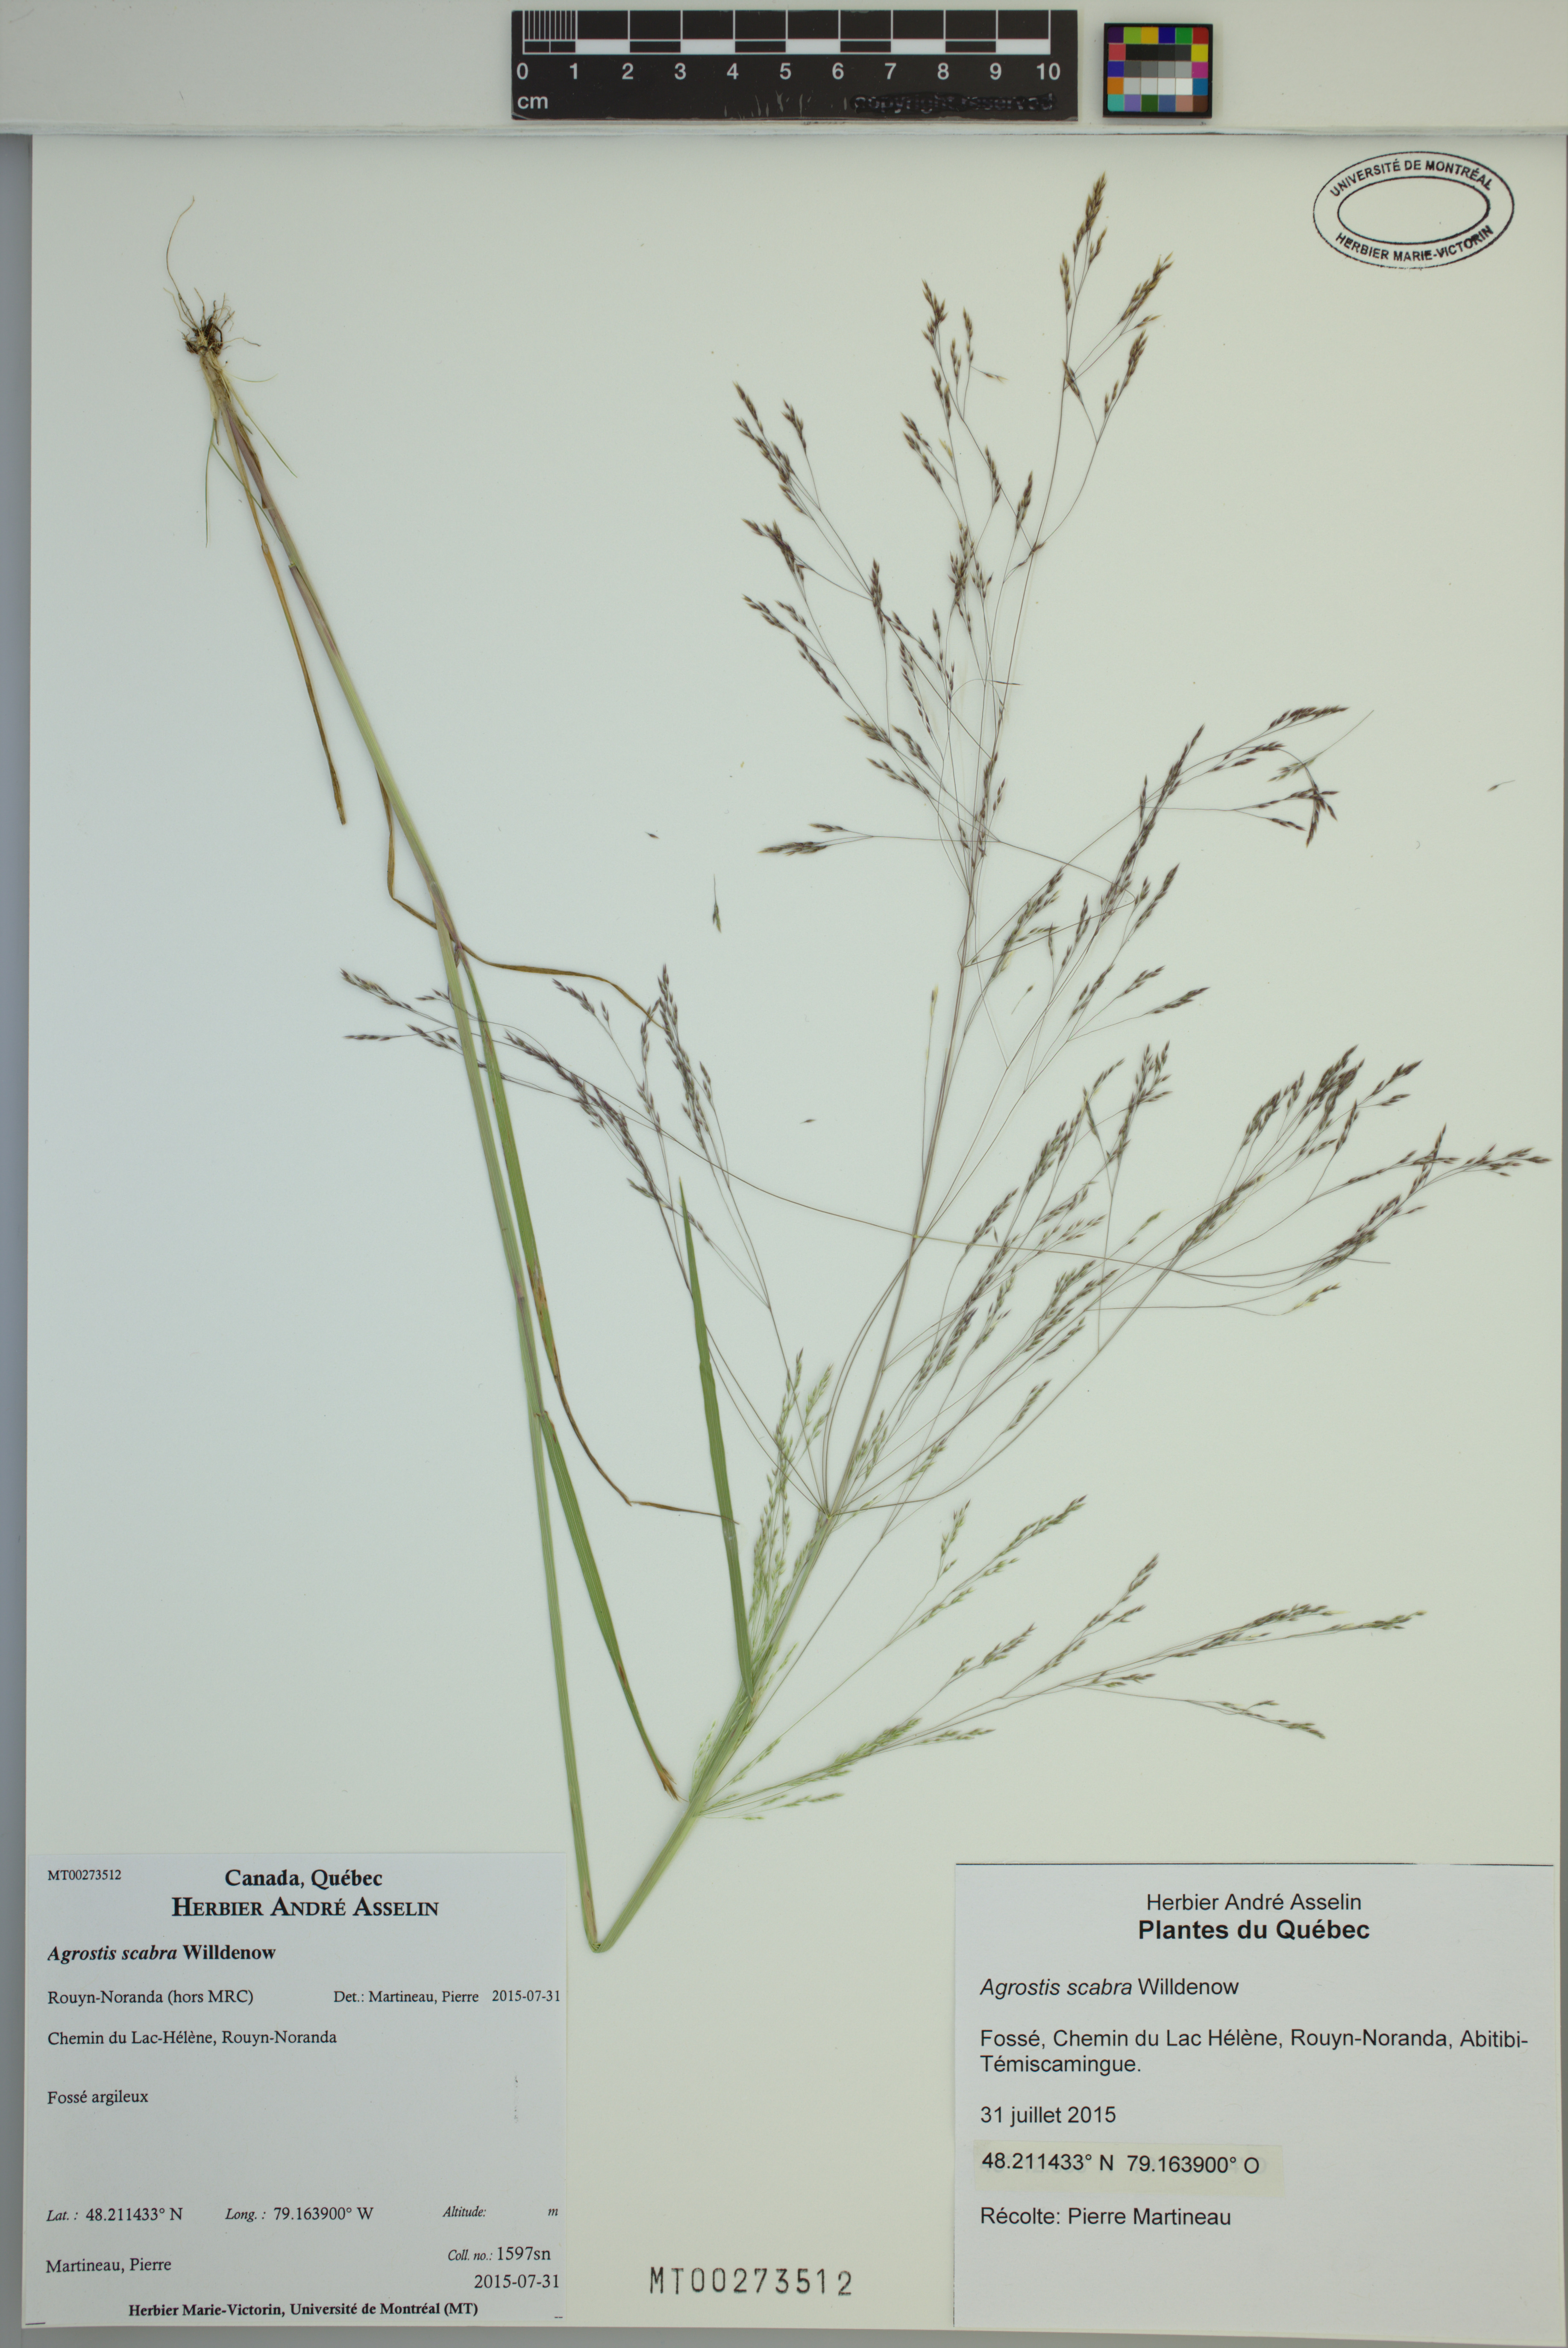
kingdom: Plantae
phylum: Tracheophyta
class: Liliopsida
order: Poales
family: Poaceae
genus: Agrostis
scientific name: Agrostis scabra
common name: Rough bent
